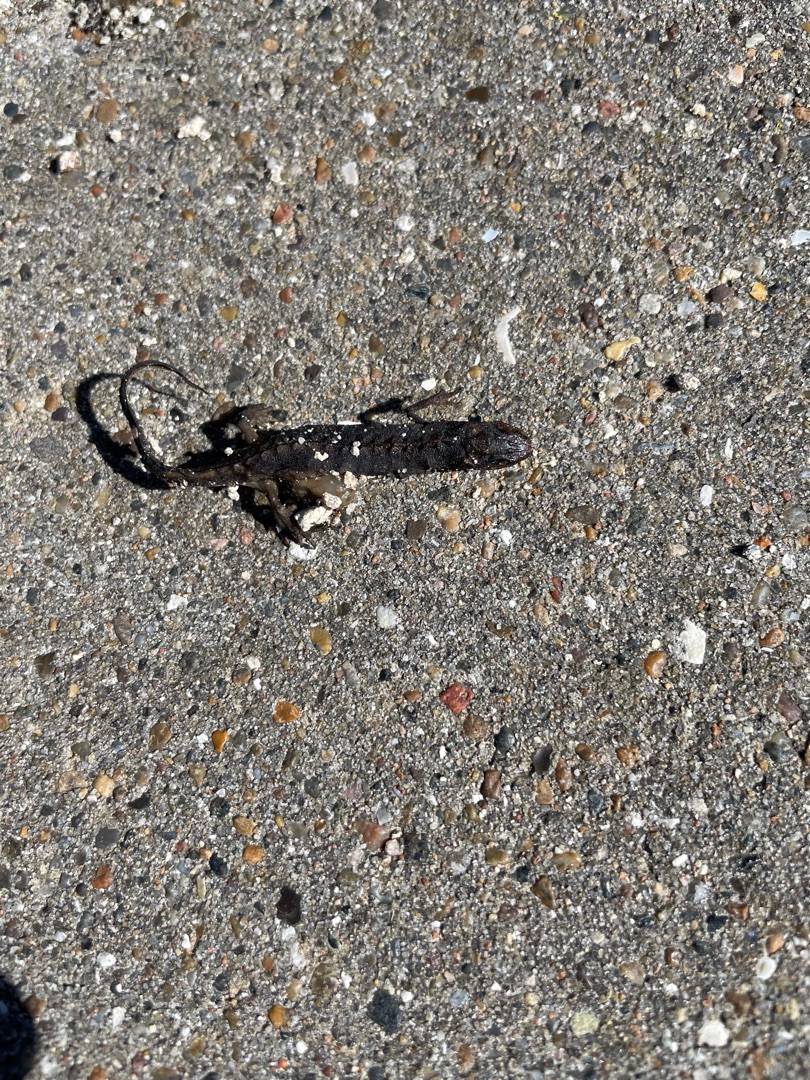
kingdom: Animalia
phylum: Chordata
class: Amphibia
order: Caudata
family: Salamandridae
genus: Lissotriton
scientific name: Lissotriton vulgaris
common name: Lille vandsalamander
